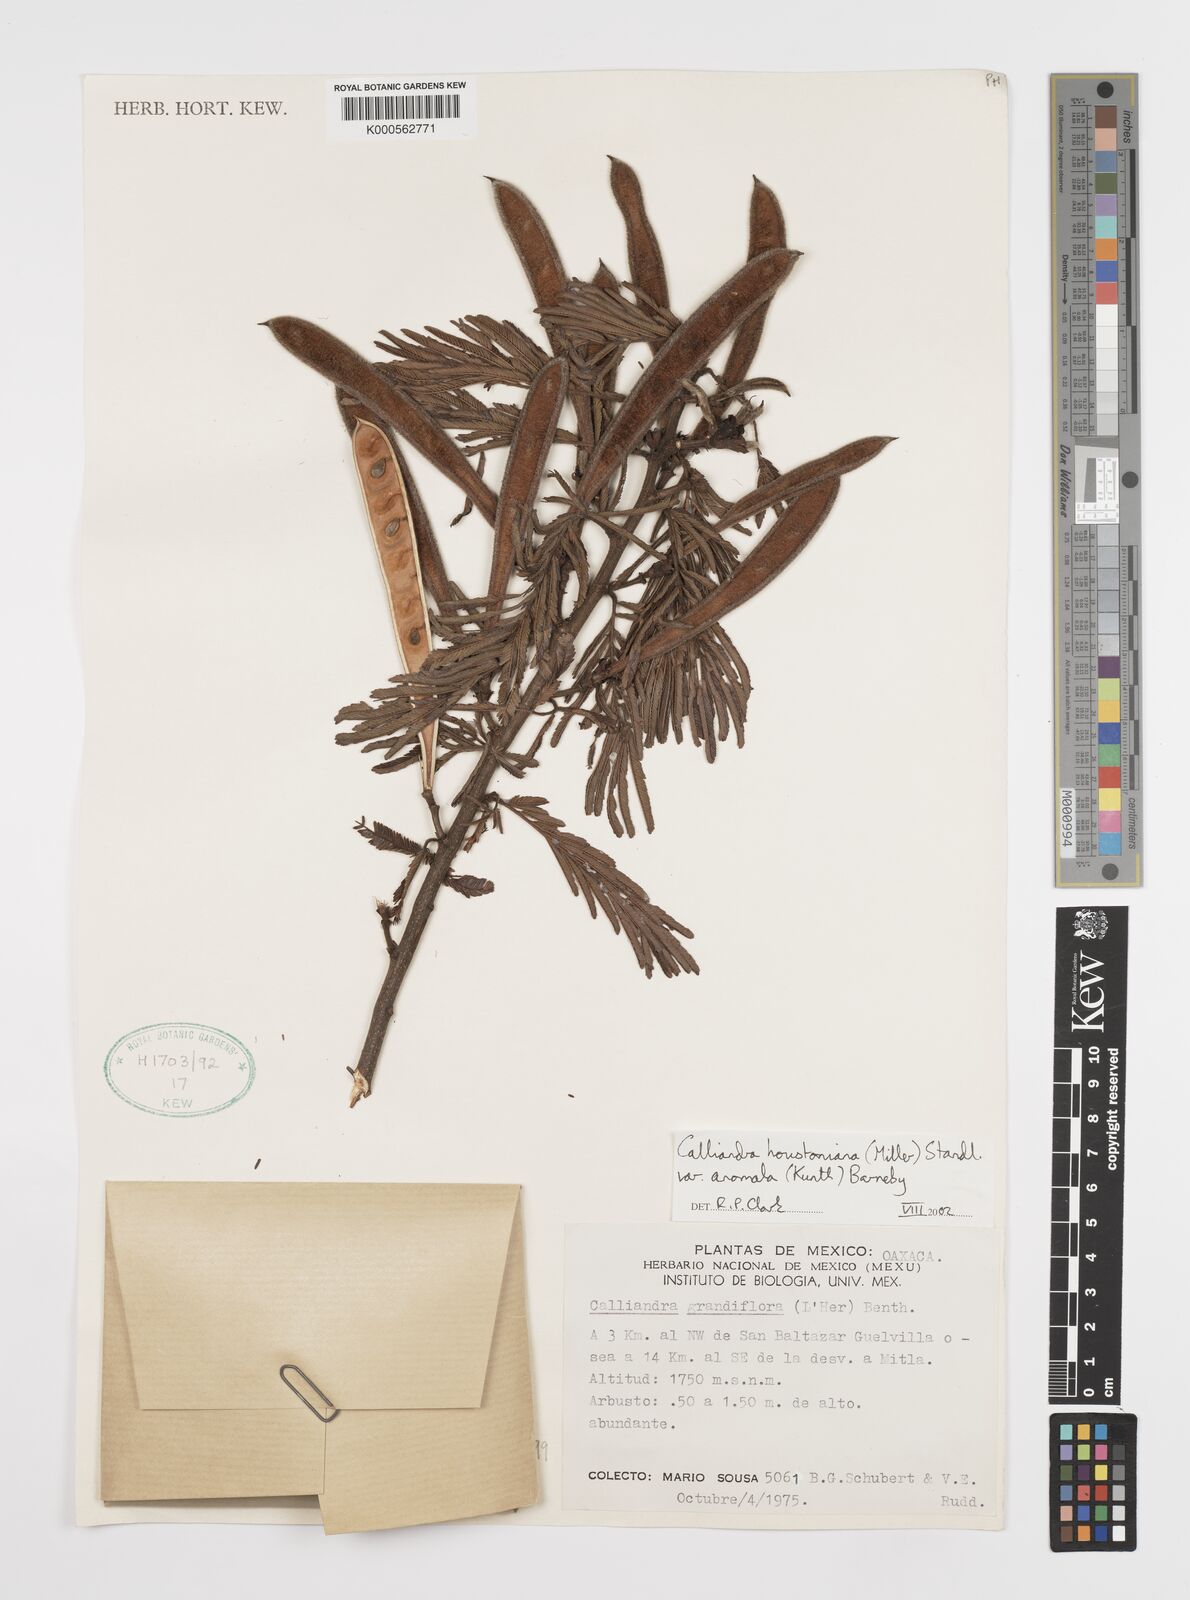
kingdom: Plantae
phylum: Tracheophyta
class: Magnoliopsida
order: Fabales
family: Fabaceae
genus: Calliandra
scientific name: Calliandra houstoniana
